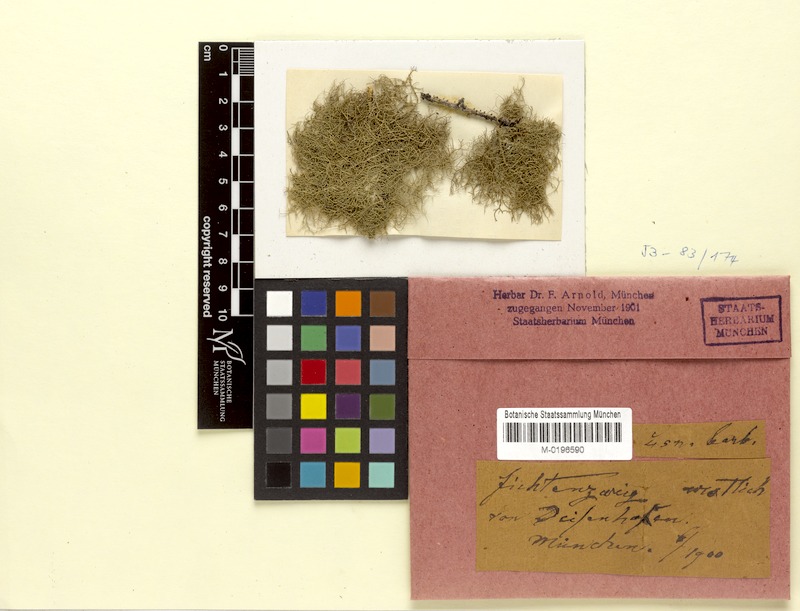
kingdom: Fungi
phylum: Ascomycota
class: Lecanoromycetes
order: Lecanorales
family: Parmeliaceae
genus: Usnea
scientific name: Usnea florida
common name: Witches' whiskers lichen
